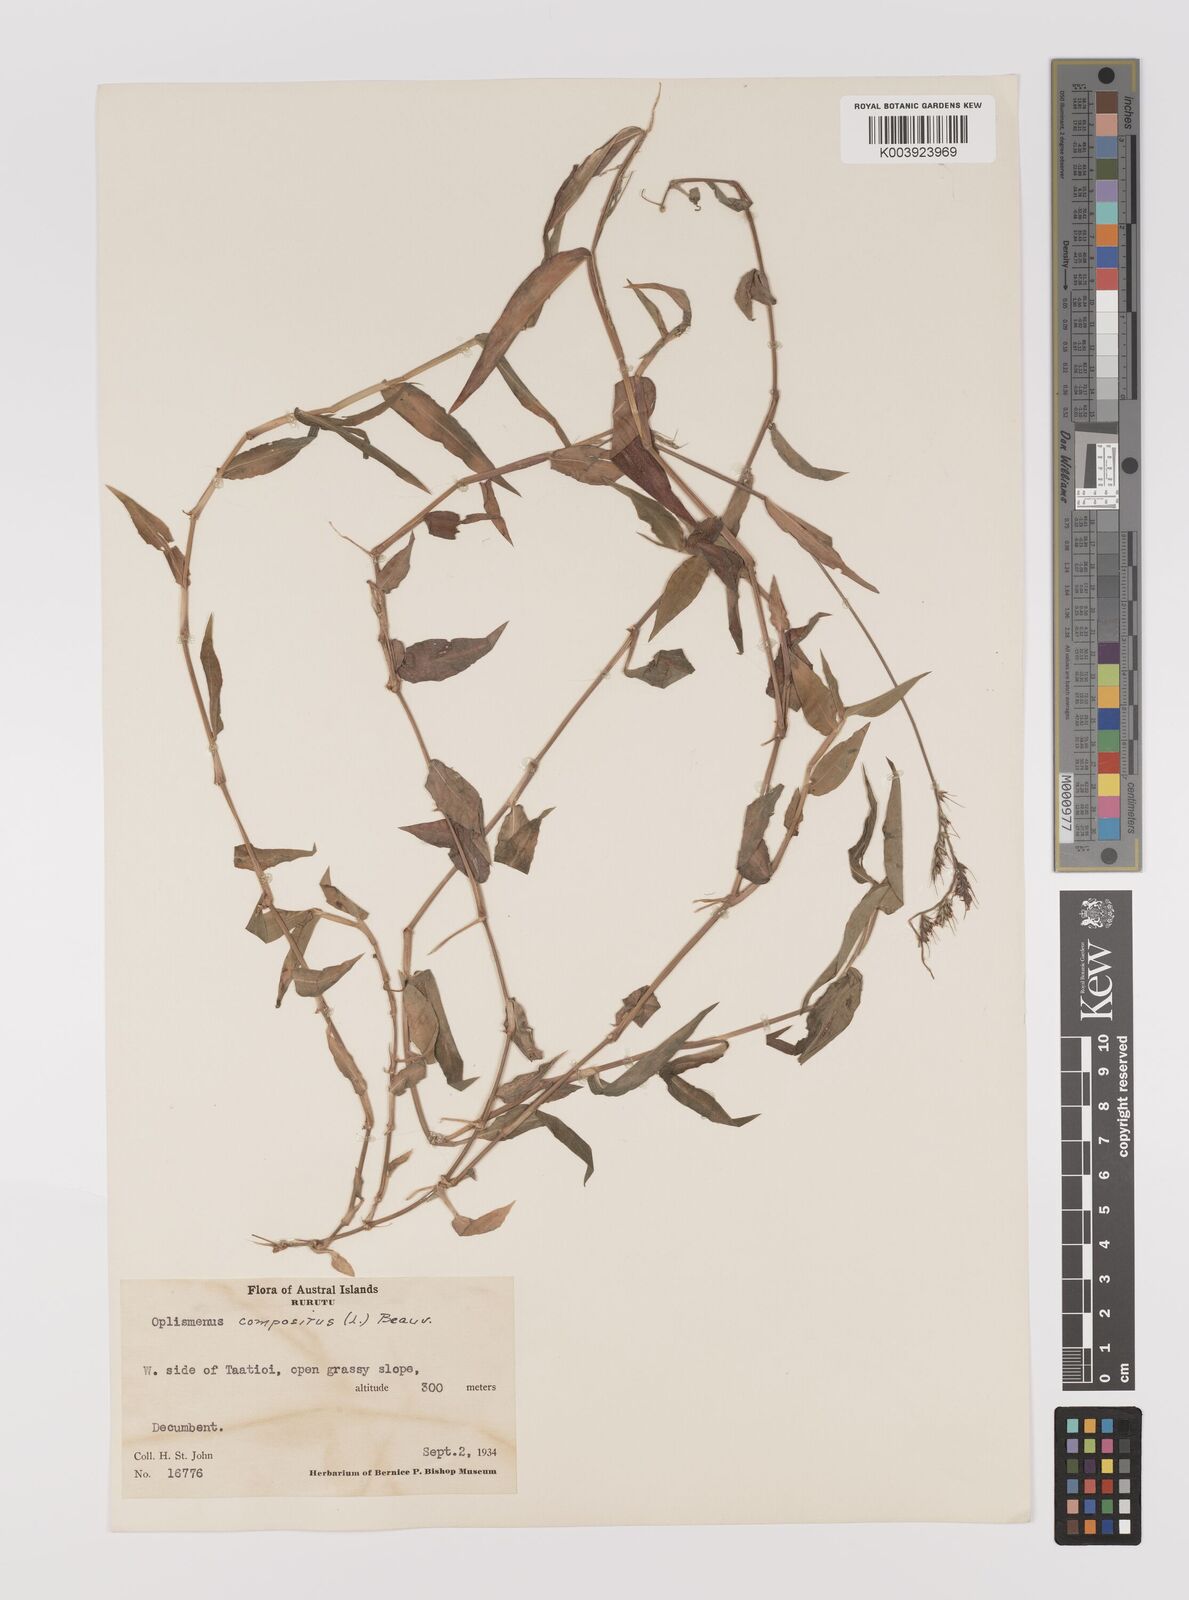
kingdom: Plantae
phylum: Tracheophyta
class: Liliopsida
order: Poales
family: Poaceae
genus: Oplismenus
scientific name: Oplismenus compositus
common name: Running mountain grass
